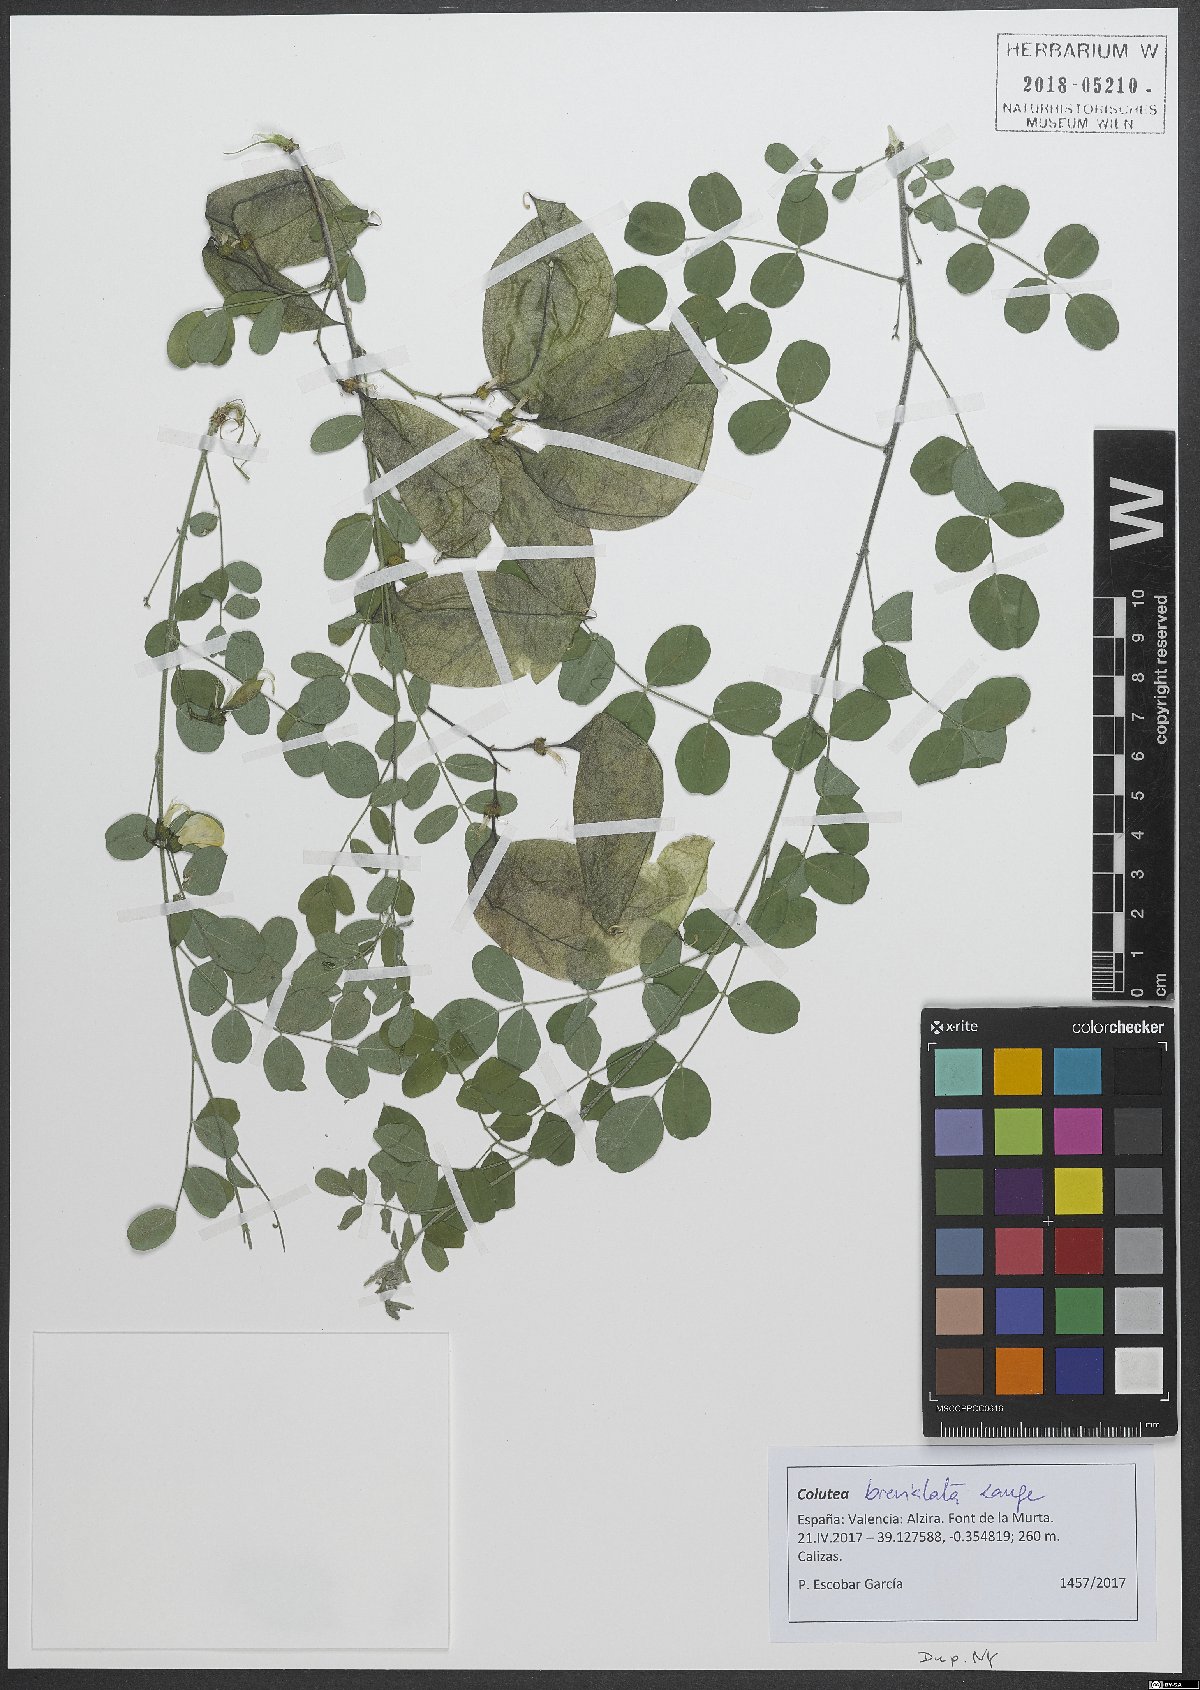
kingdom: Plantae
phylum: Tracheophyta
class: Magnoliopsida
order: Fabales
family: Fabaceae
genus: Colutea
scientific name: Colutea brevialata
